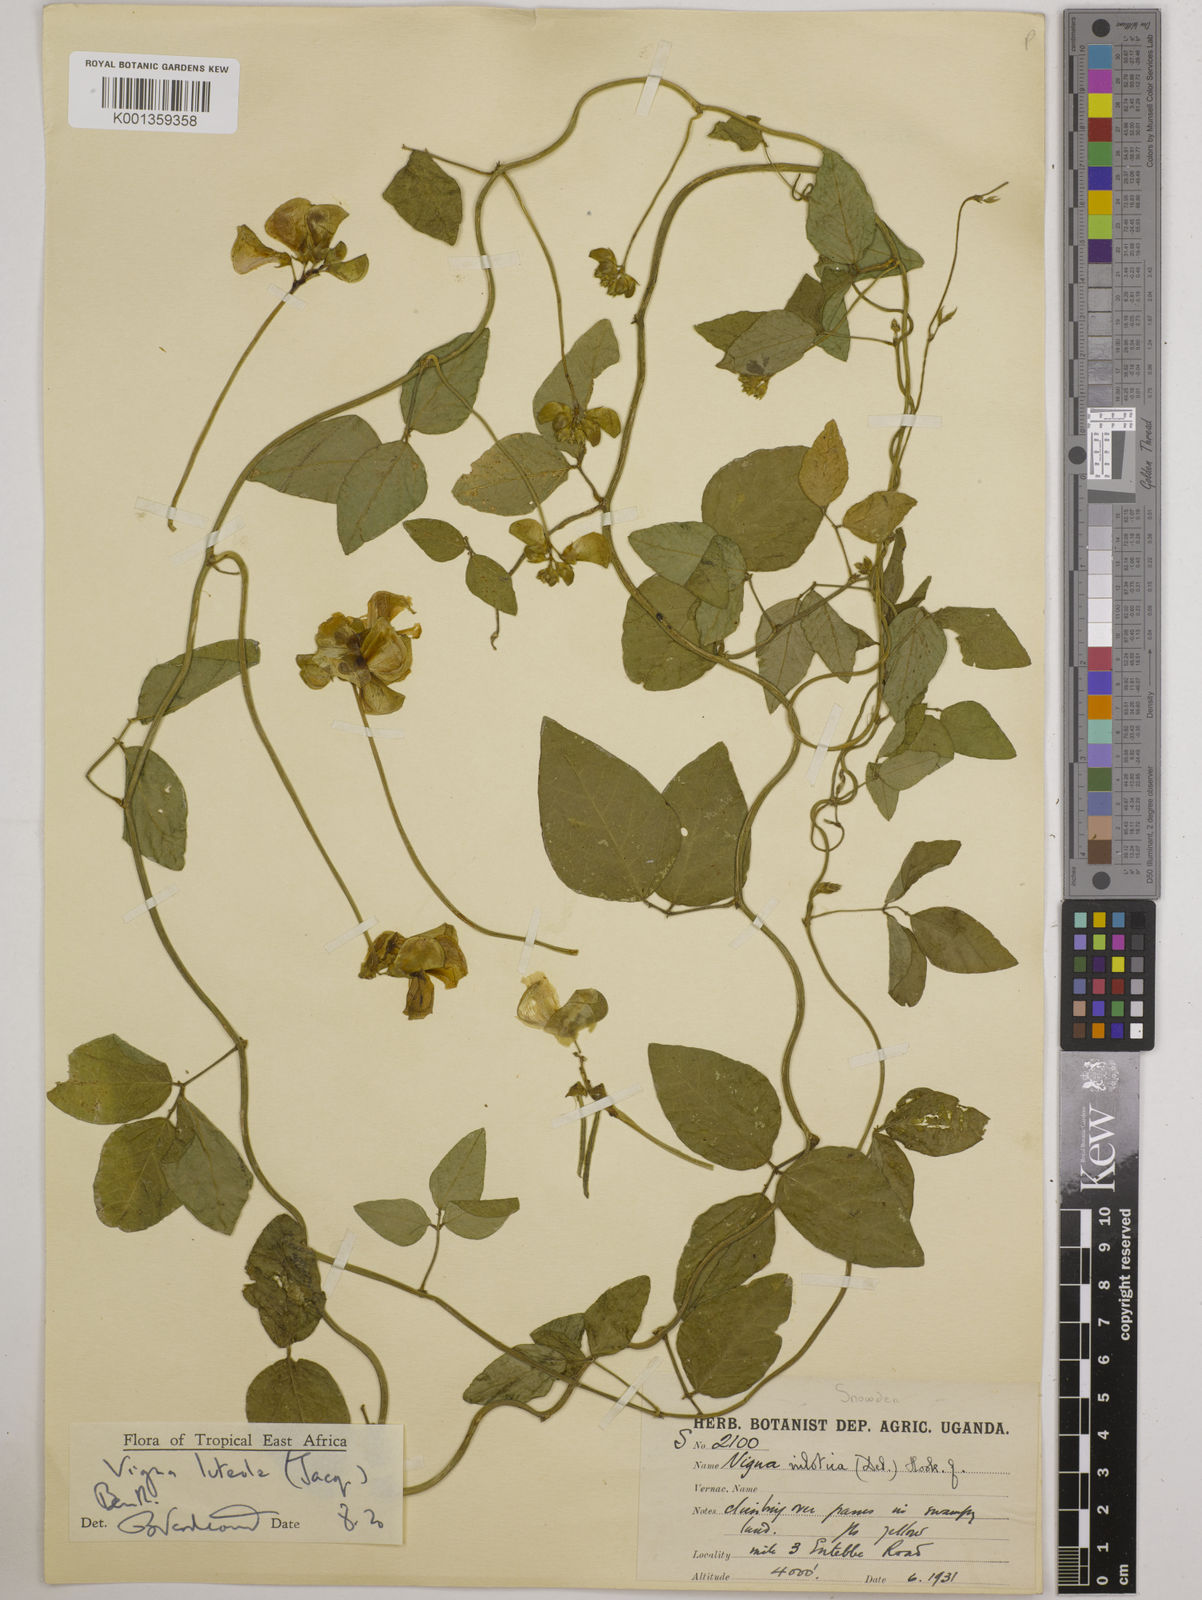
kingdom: Plantae
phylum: Tracheophyta
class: Magnoliopsida
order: Fabales
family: Fabaceae
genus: Vigna
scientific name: Vigna luteola
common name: Hairypod cowpea
